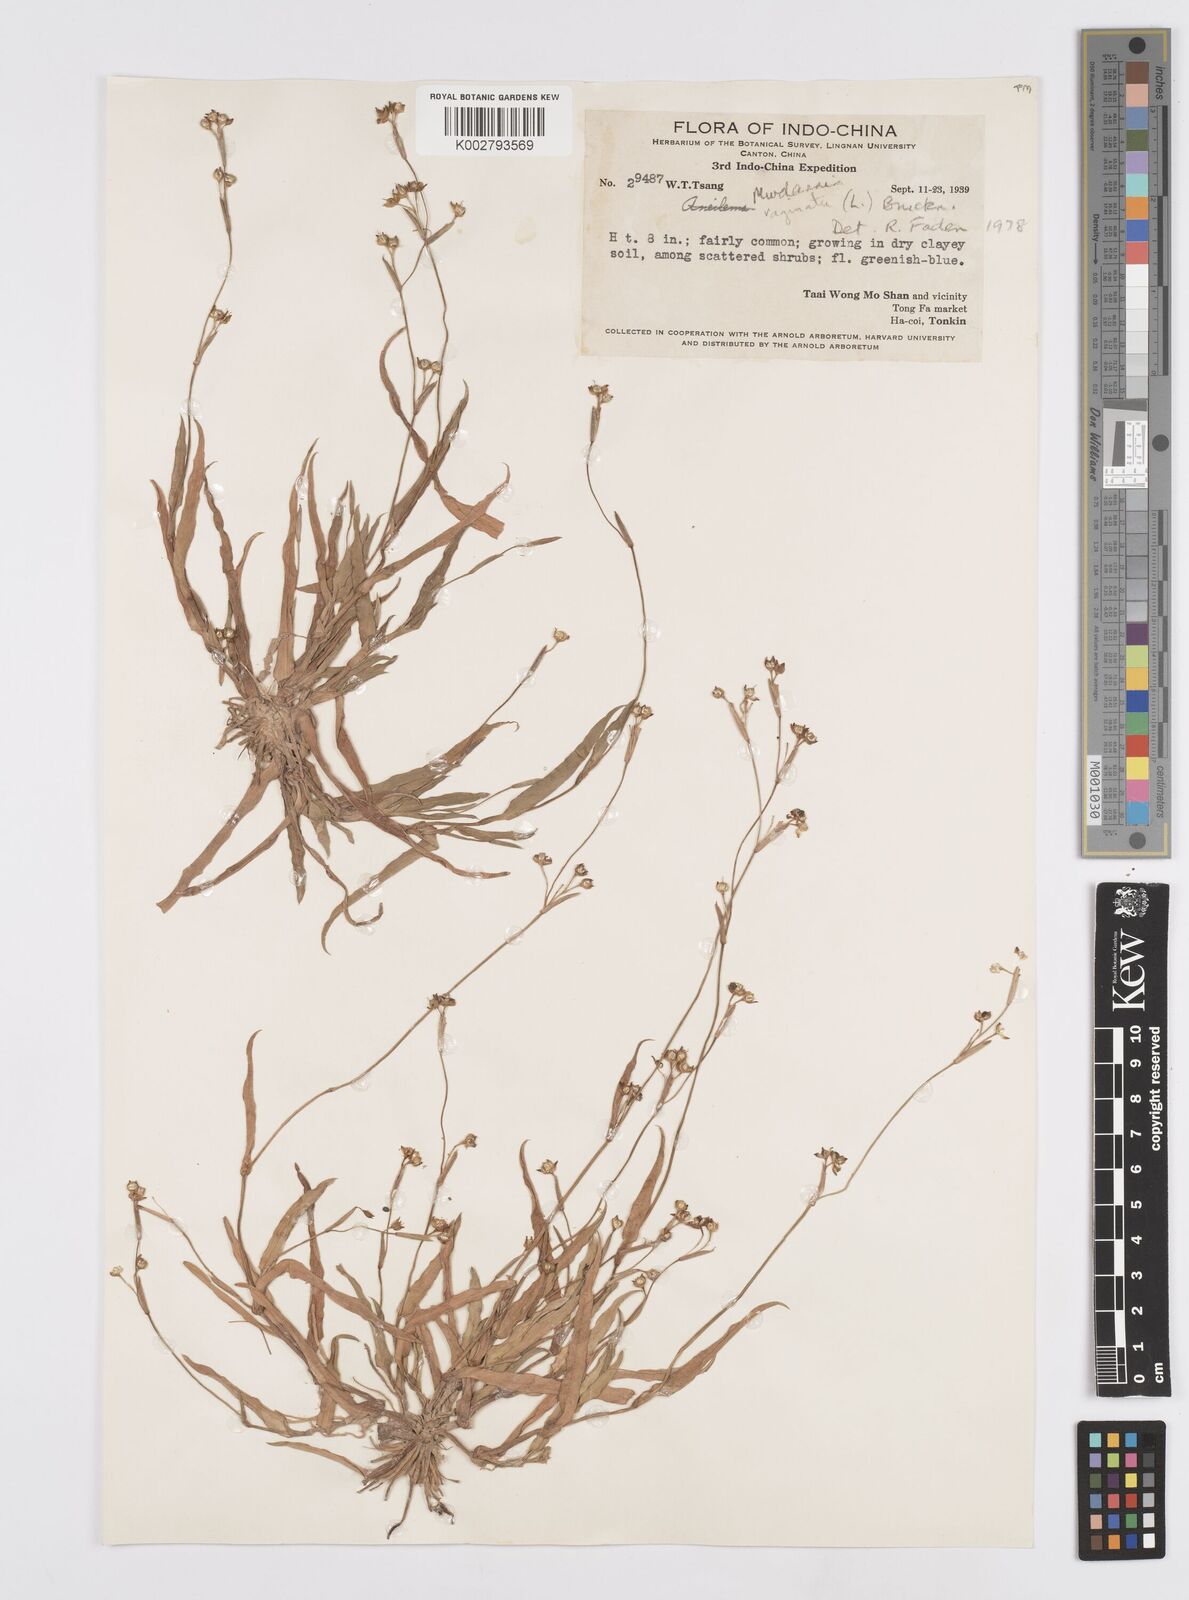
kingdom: Plantae
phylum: Tracheophyta
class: Liliopsida
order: Commelinales
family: Commelinaceae
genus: Murdannia
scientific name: Murdannia vaginata
